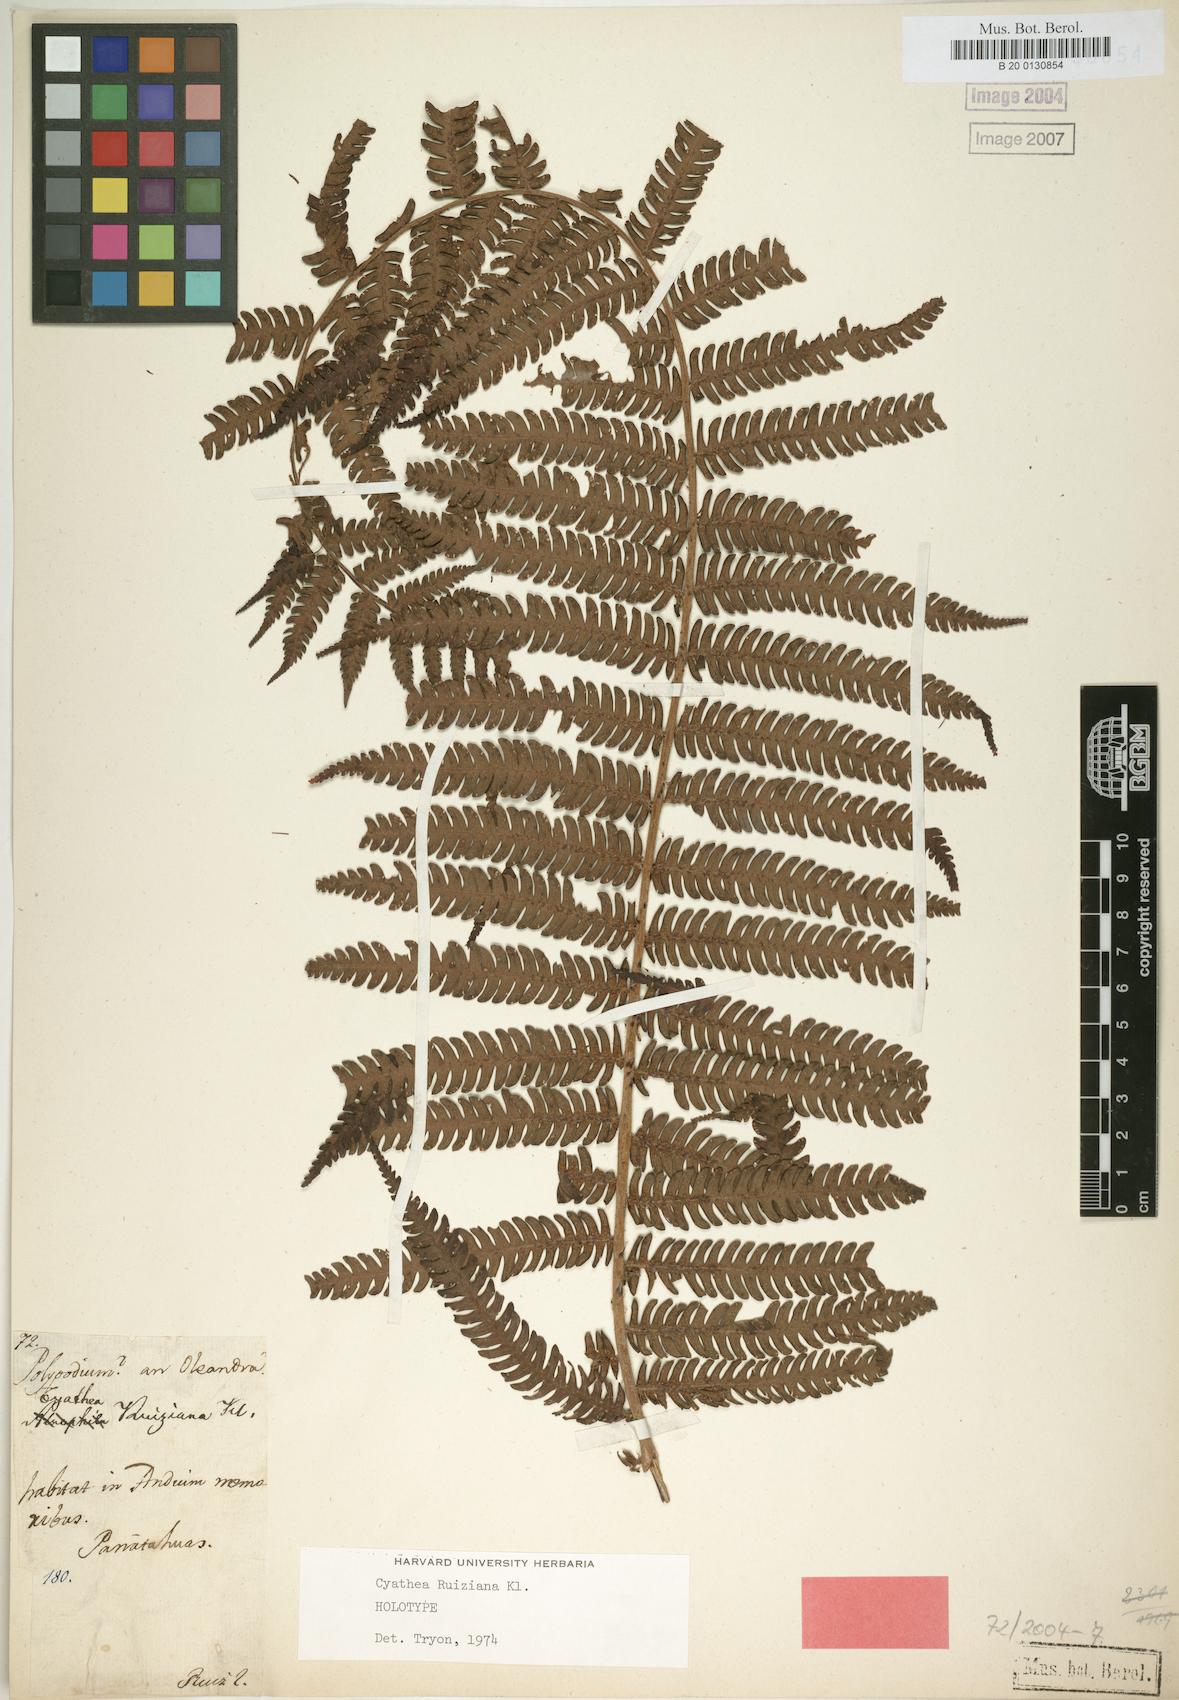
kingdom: Plantae
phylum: Tracheophyta
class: Polypodiopsida
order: Cyatheales
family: Cyatheaceae
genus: Cyathea
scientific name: Cyathea ruiziana
